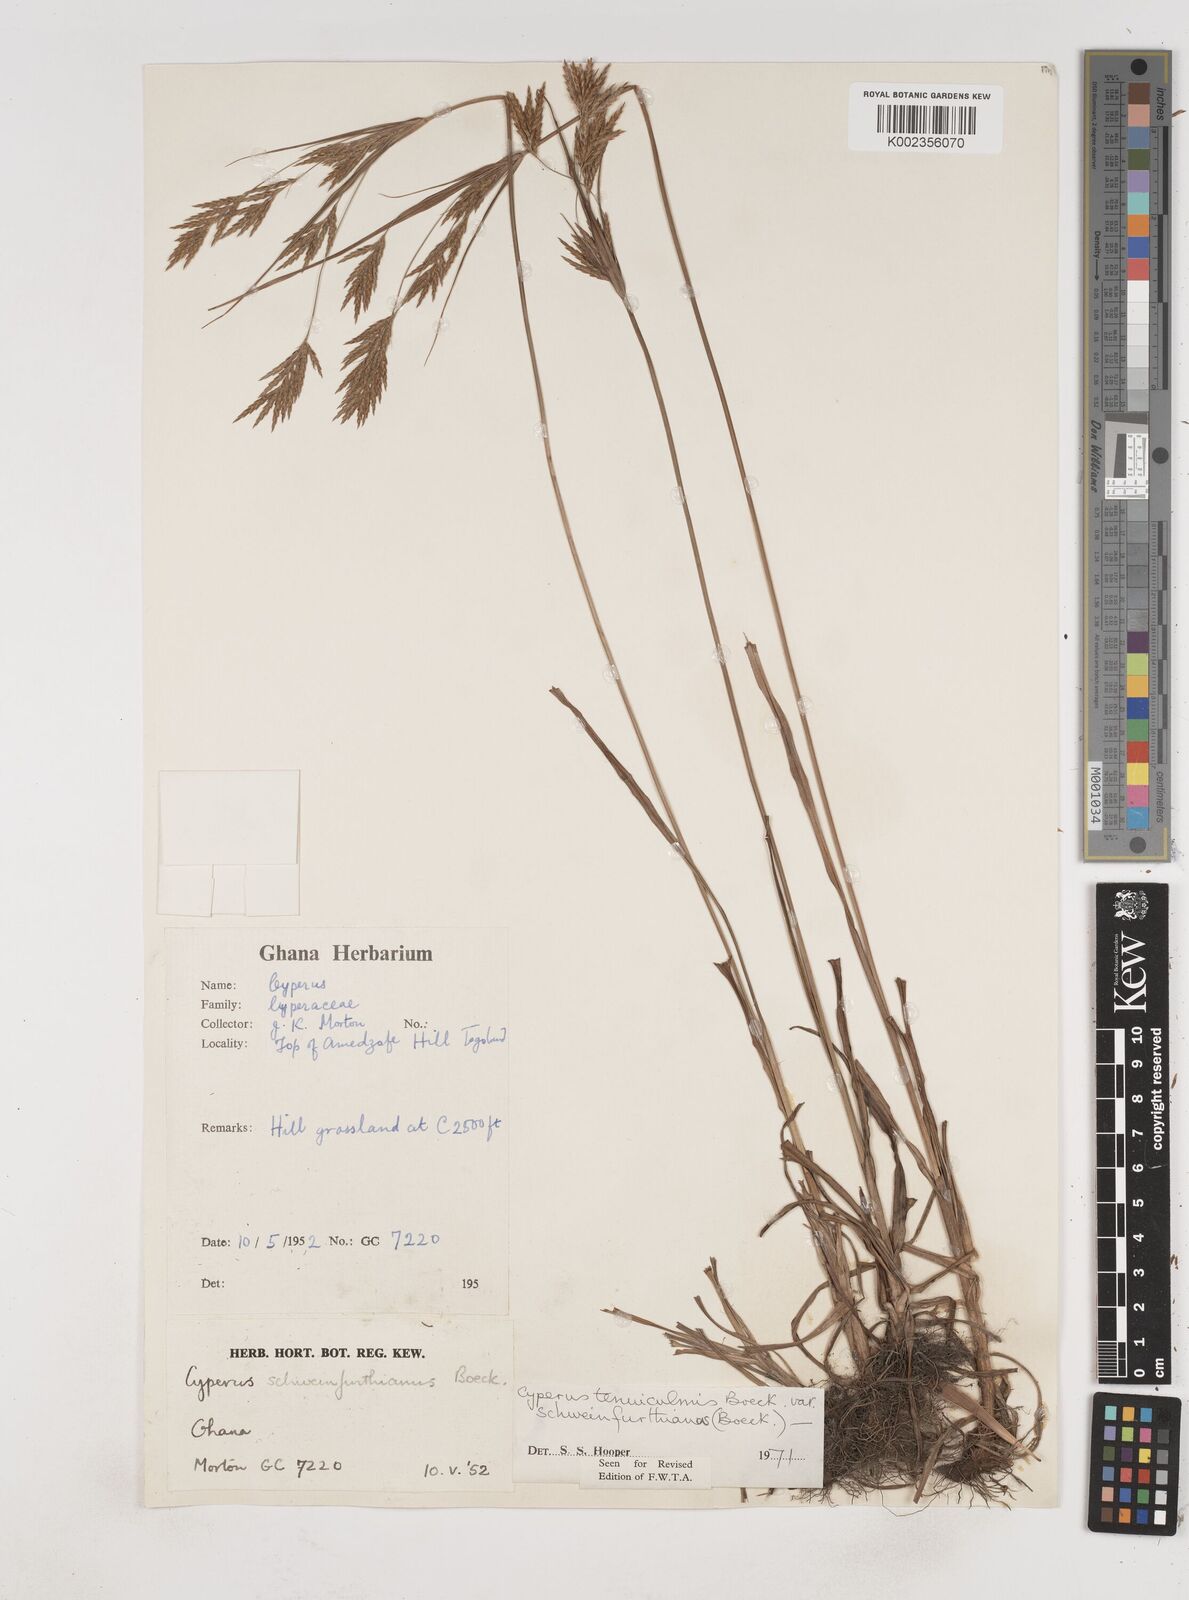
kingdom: Plantae
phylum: Tracheophyta
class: Liliopsida
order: Poales
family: Cyperaceae
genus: Cyperus
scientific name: Cyperus tenuiculmis
